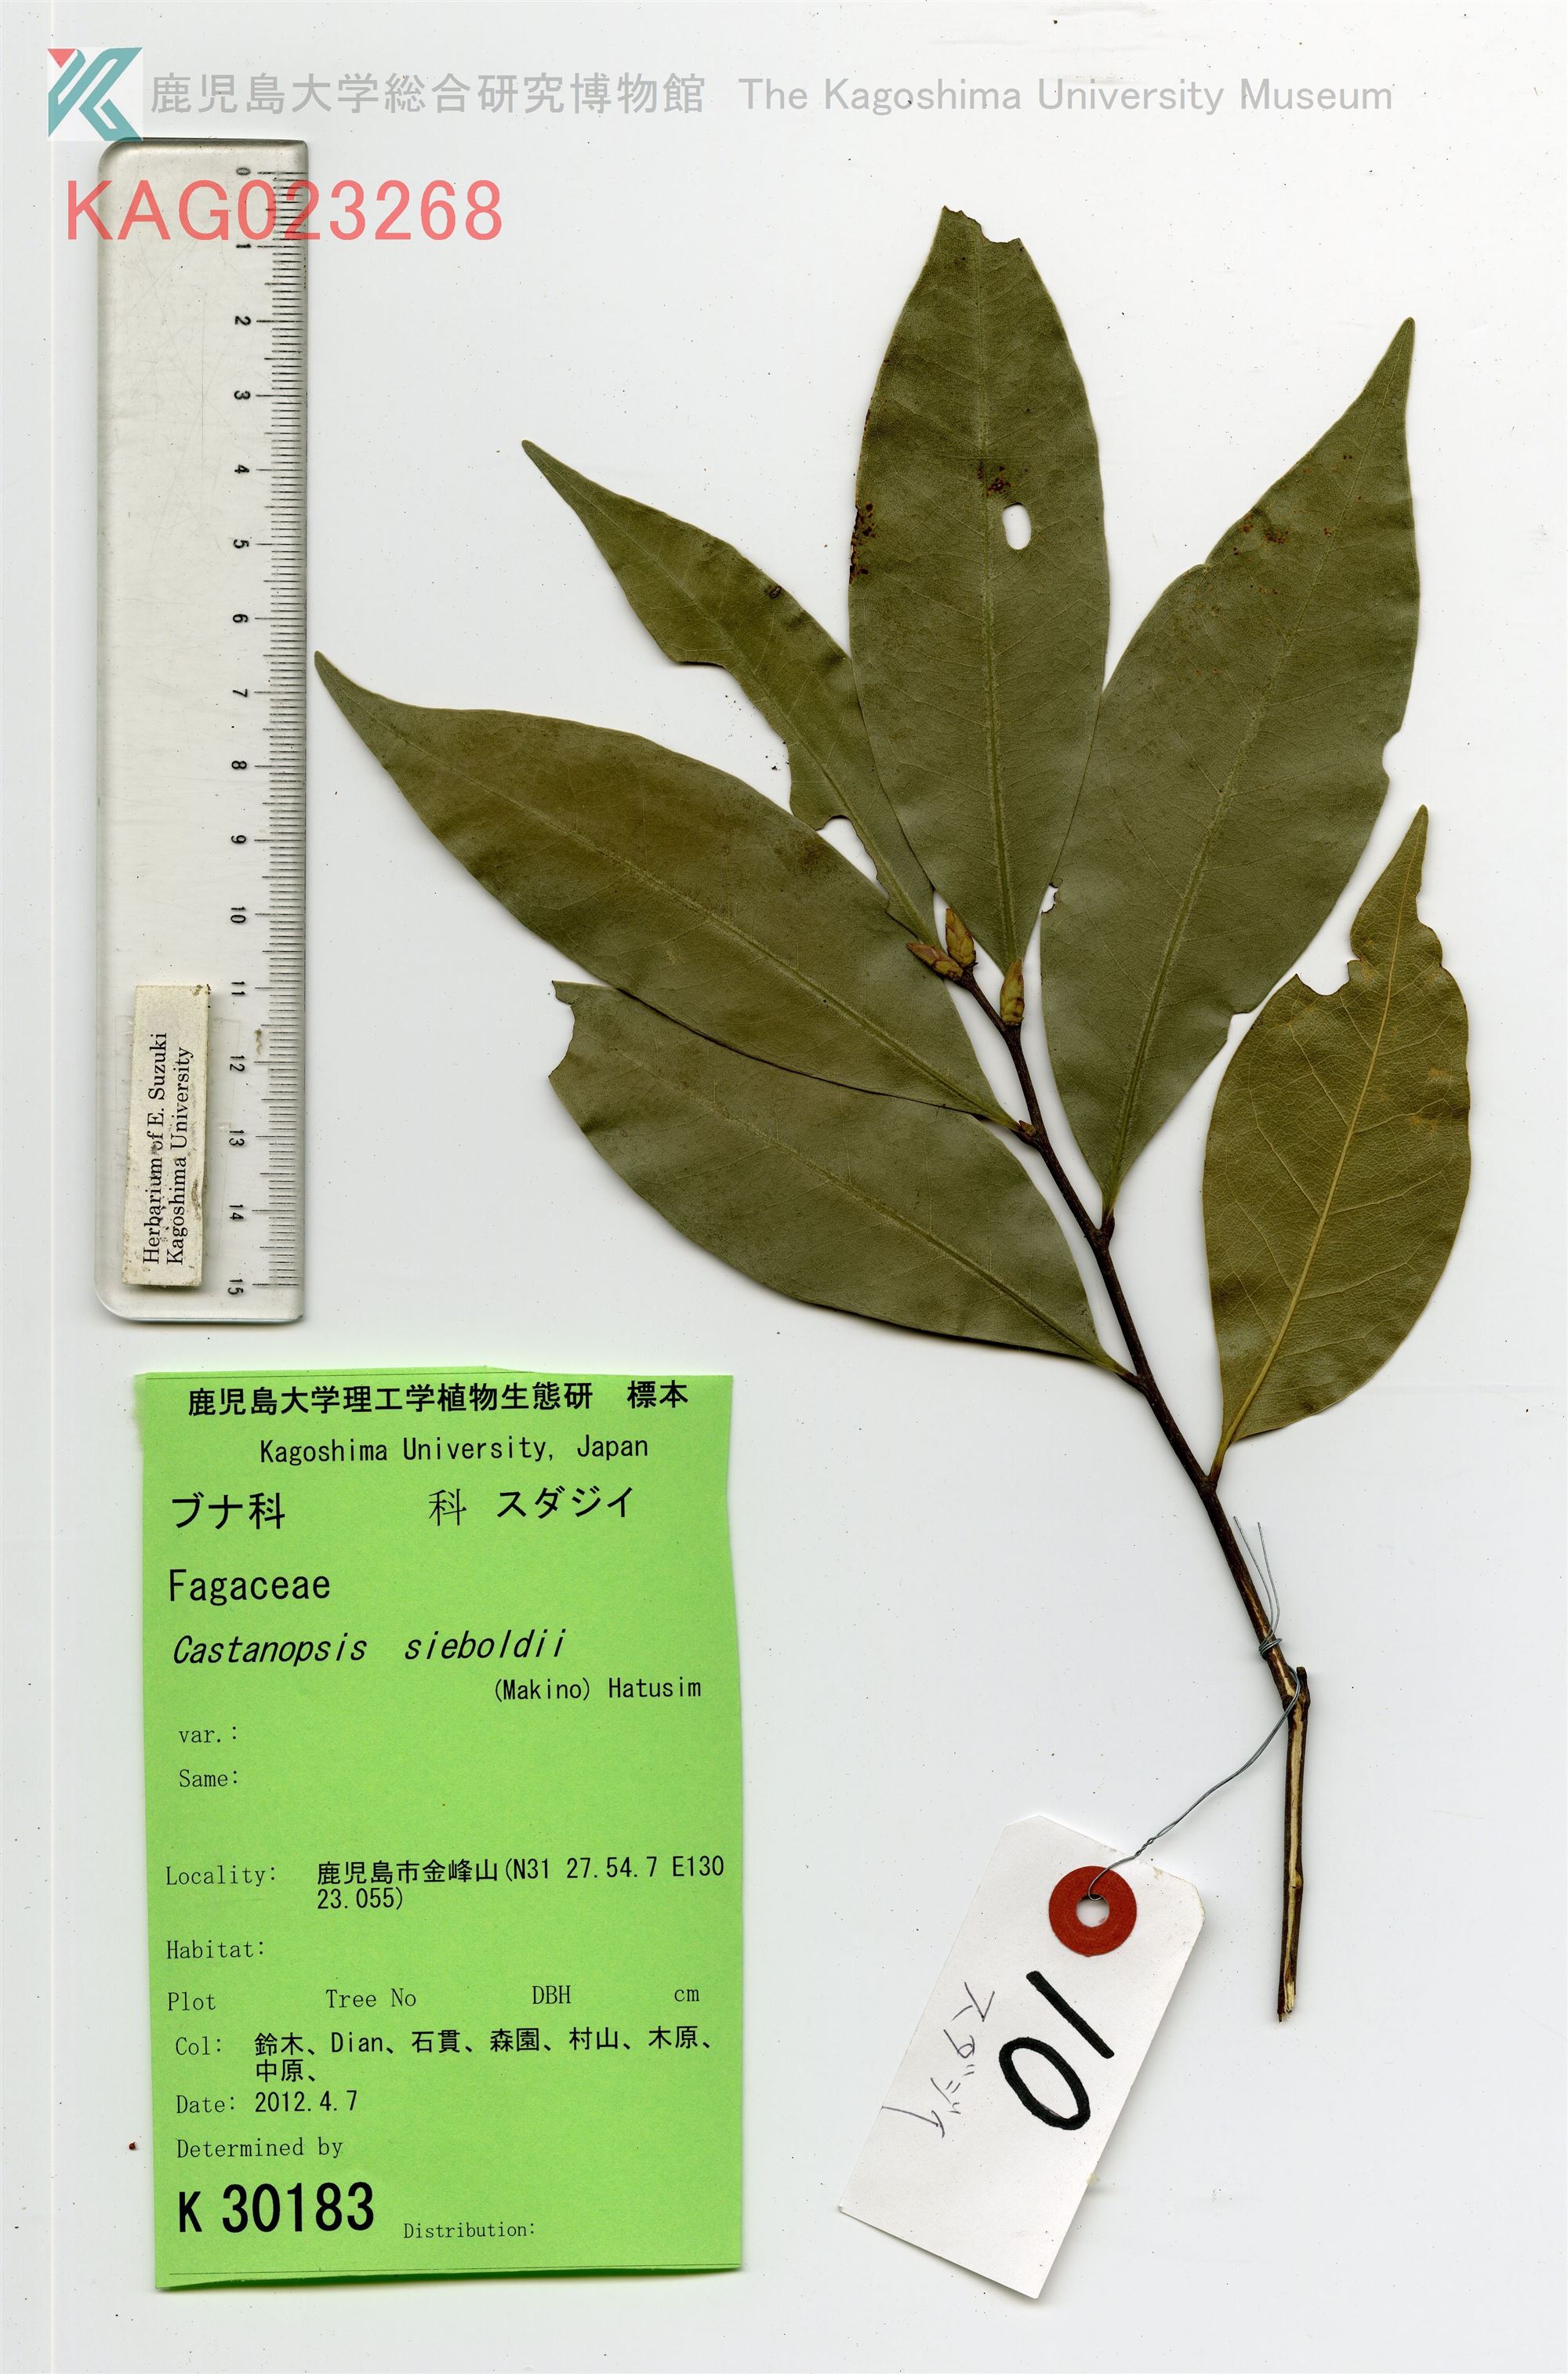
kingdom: Plantae
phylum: Tracheophyta
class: Magnoliopsida
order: Fagales
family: Fagaceae
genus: Castanopsis
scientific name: Castanopsis sieboldii
